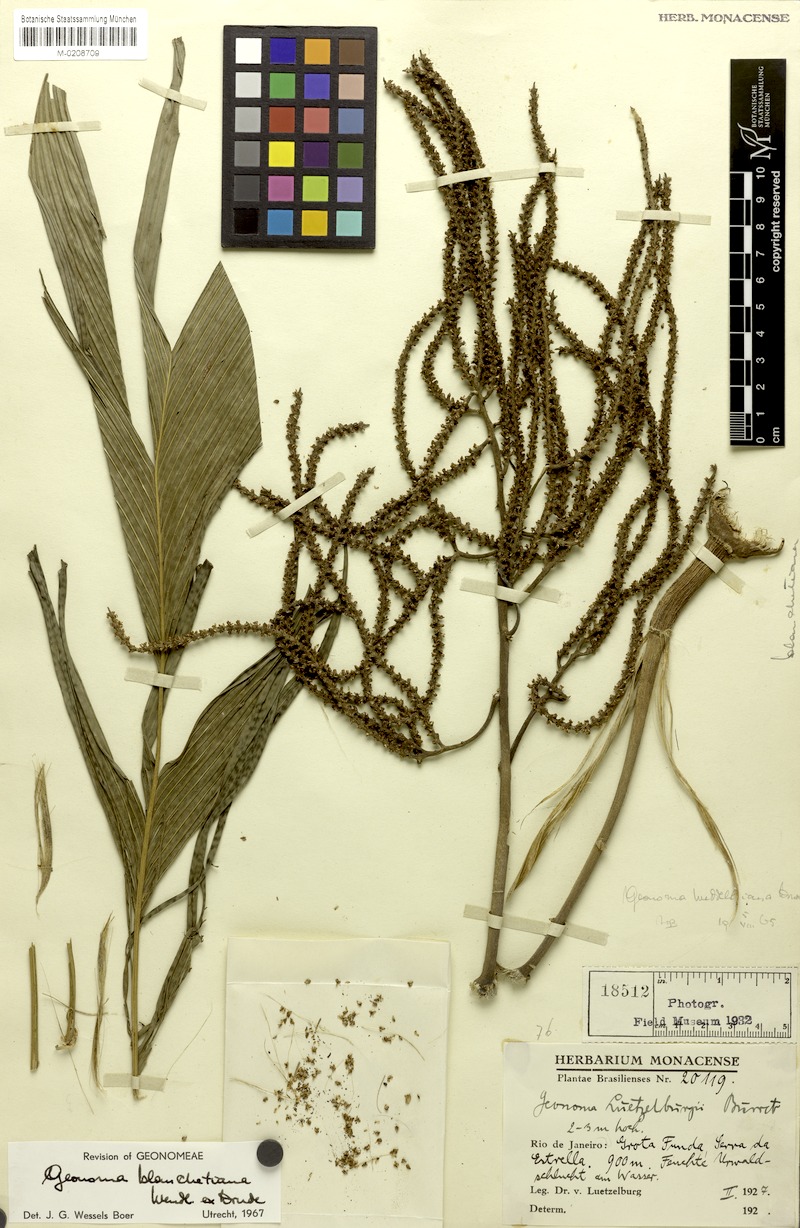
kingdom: Plantae
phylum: Tracheophyta
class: Liliopsida
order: Arecales
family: Arecaceae
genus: Geonoma
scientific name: Geonoma pohliana
